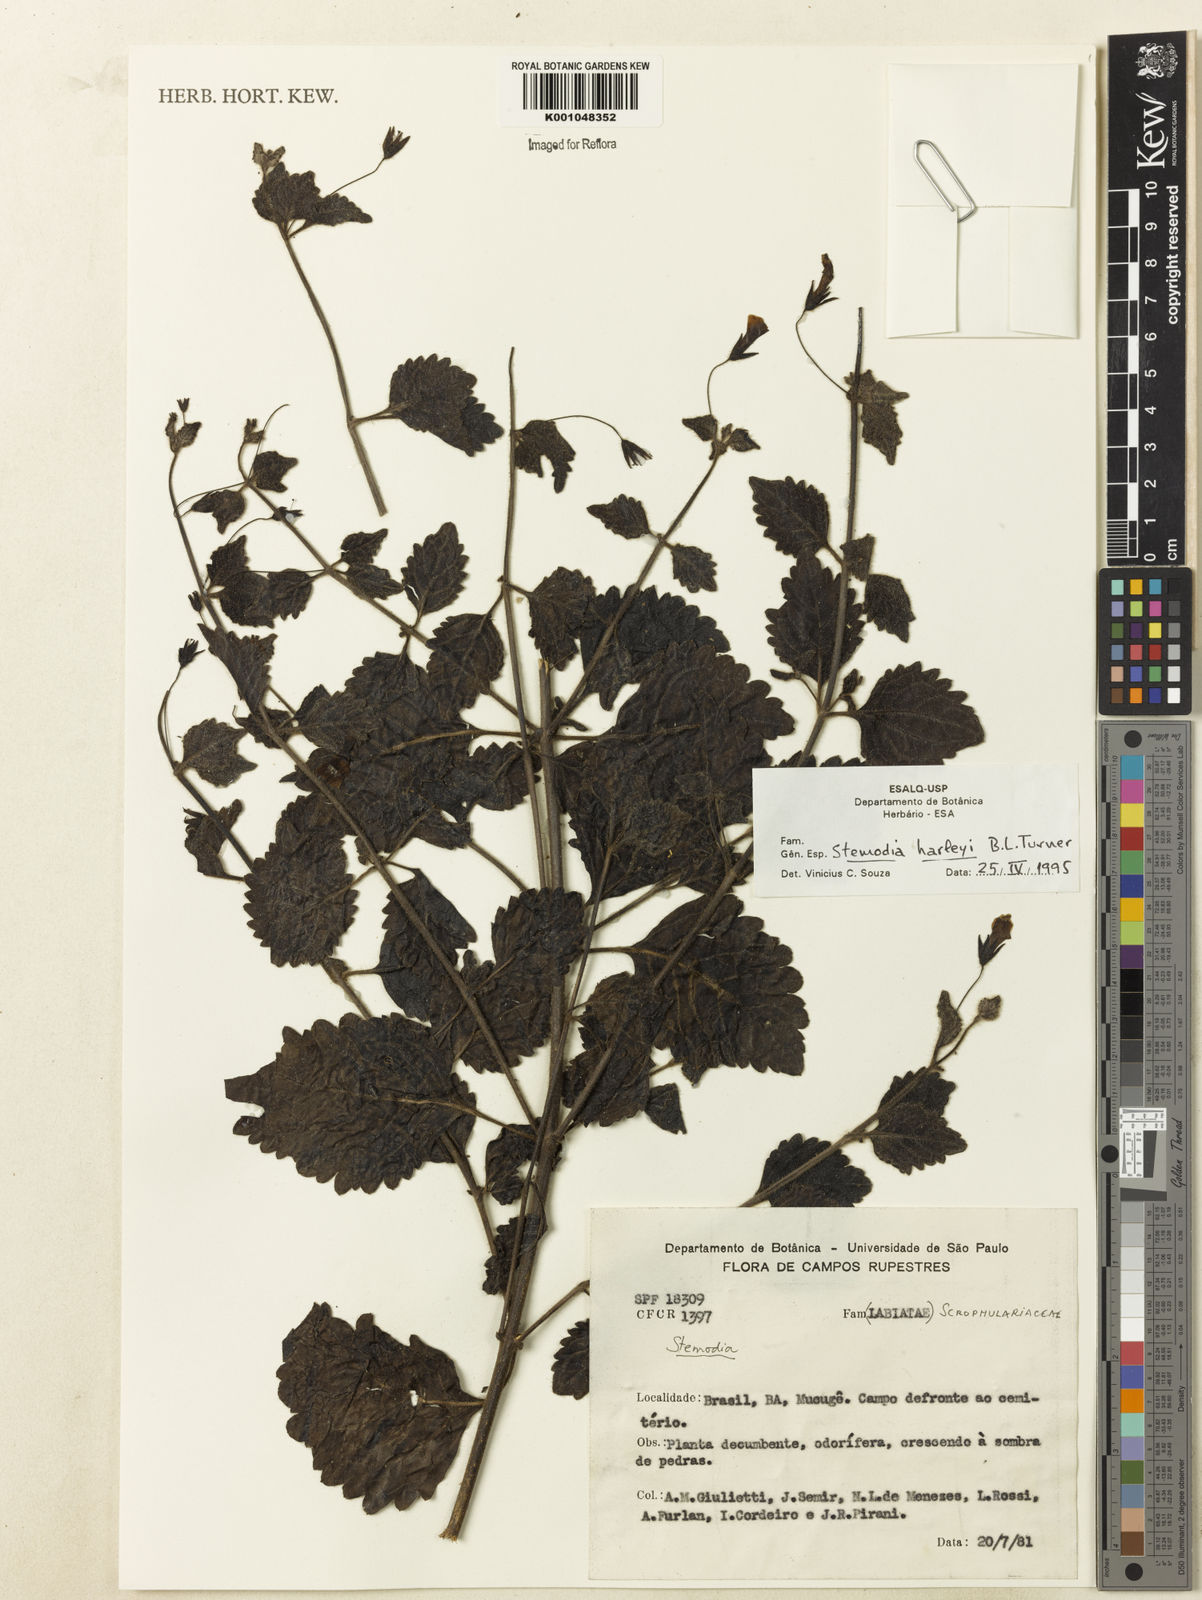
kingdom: Plantae
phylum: Tracheophyta
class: Magnoliopsida
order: Lamiales
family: Plantaginaceae
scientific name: Plantaginaceae
